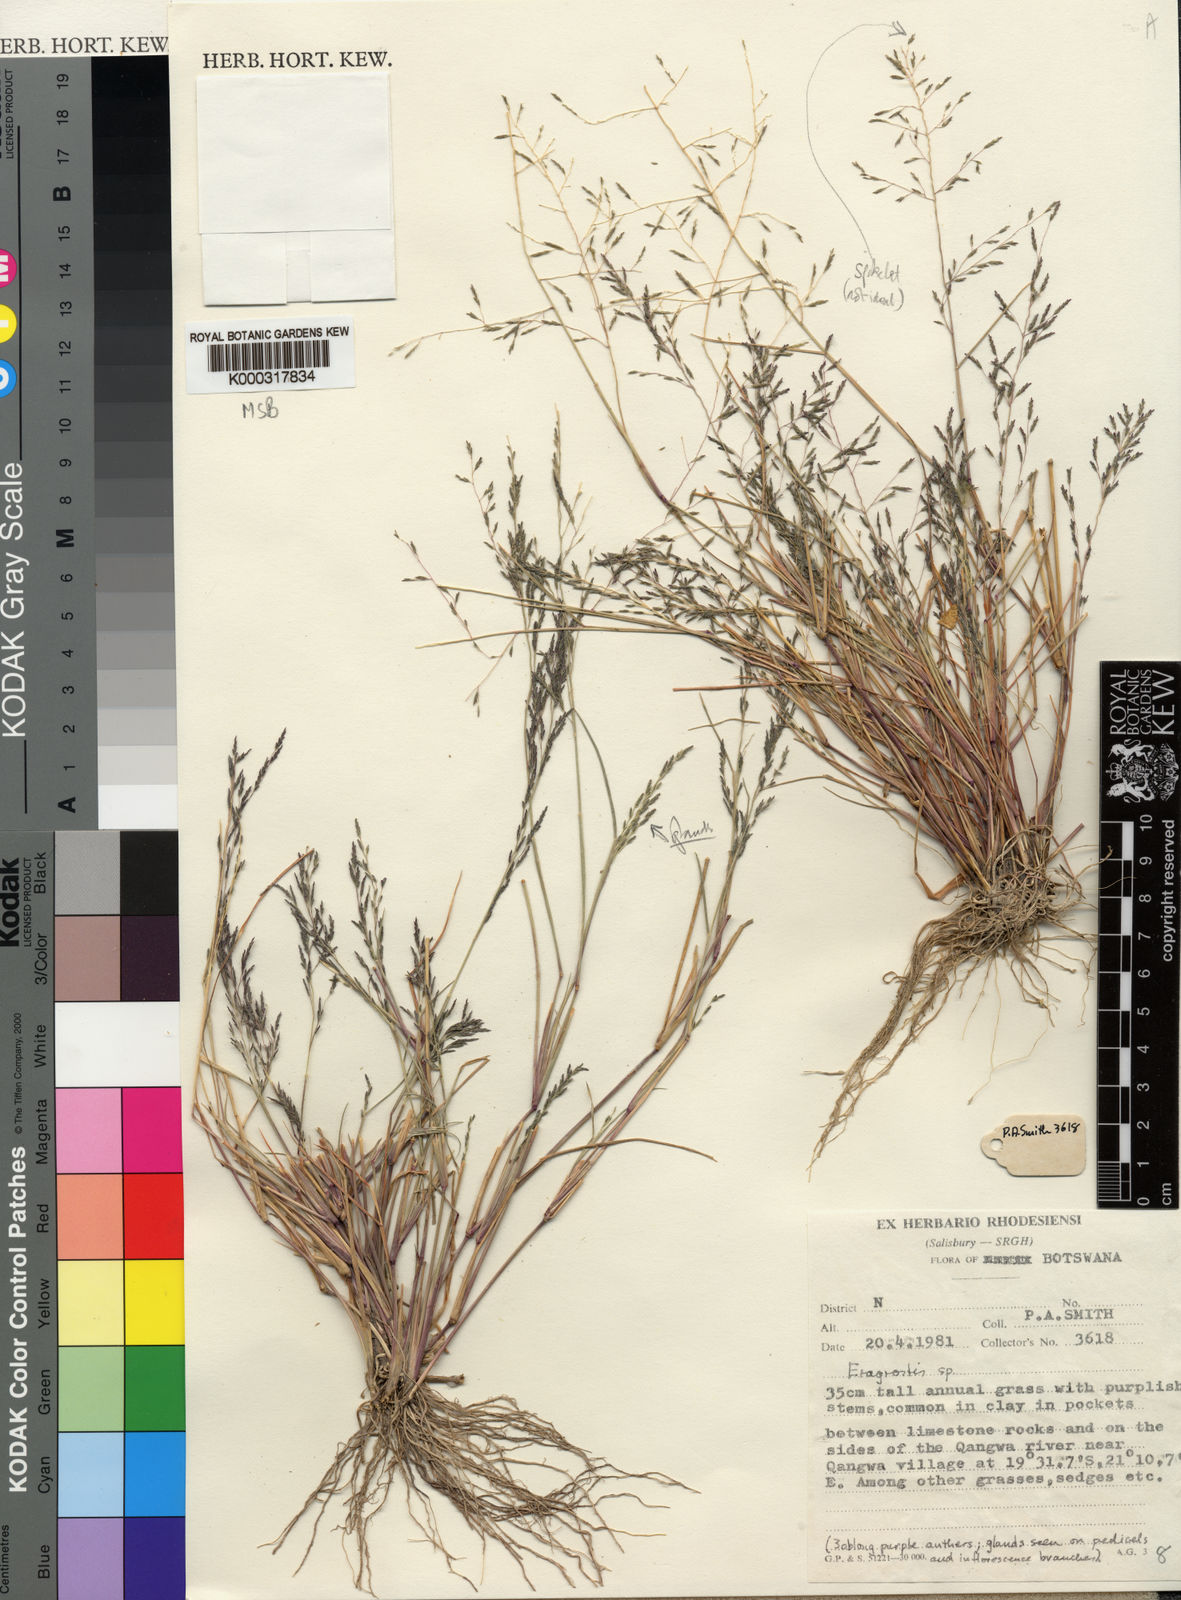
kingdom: Plantae
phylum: Tracheophyta
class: Liliopsida
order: Poales
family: Poaceae
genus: Eragrostis
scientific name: Eragrostis subglandulosa
